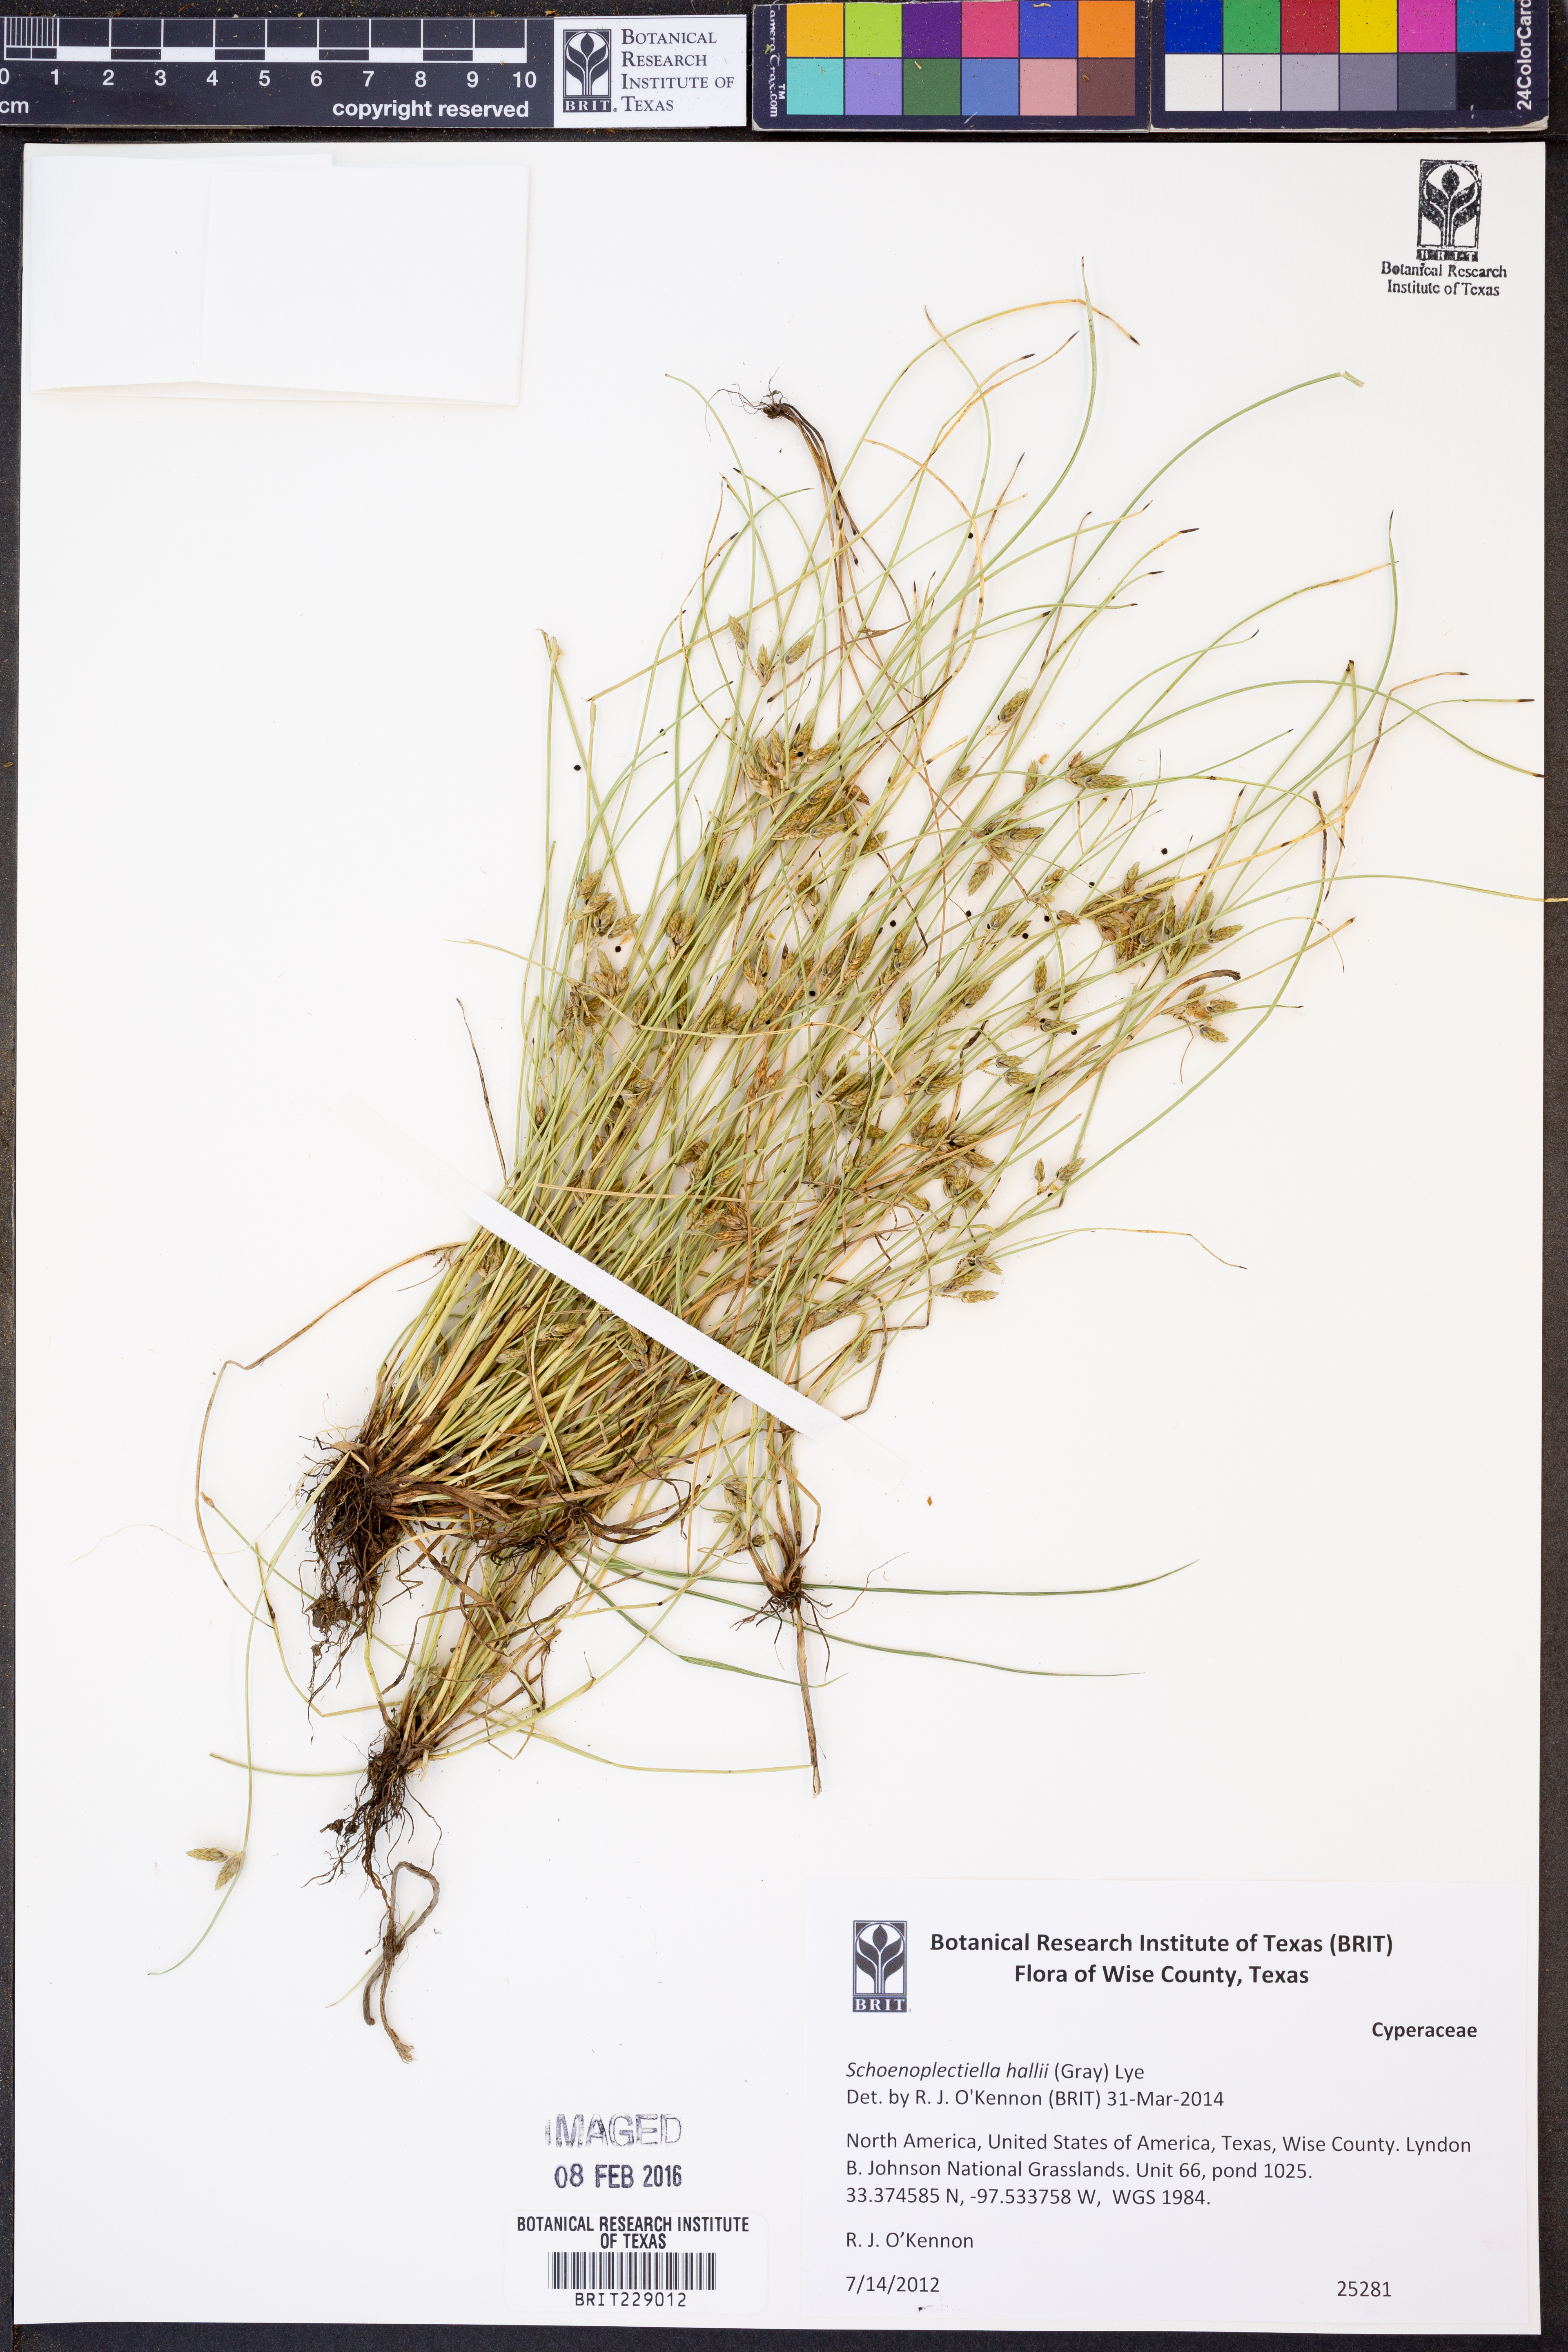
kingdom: Plantae
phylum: Tracheophyta
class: Liliopsida
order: Poales
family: Cyperaceae
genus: Schoenoplectiella
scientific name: Schoenoplectiella hallii
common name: Hall's bullrush
